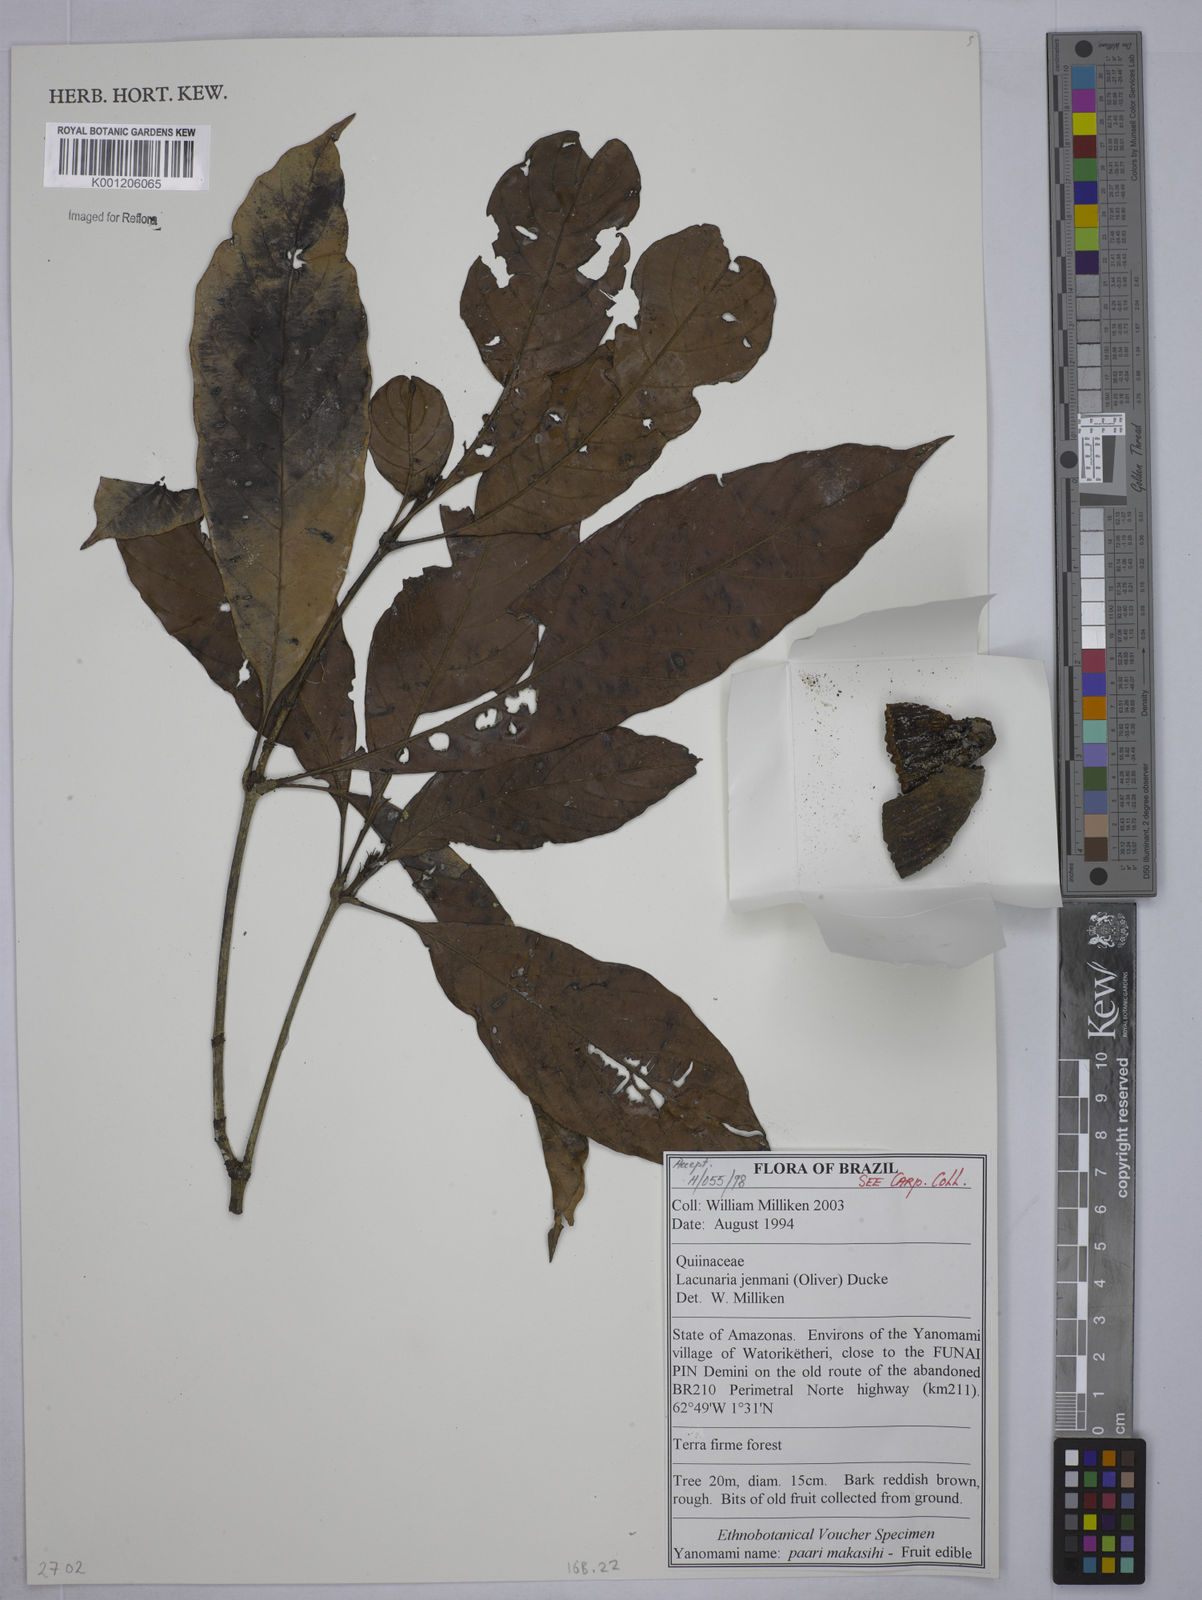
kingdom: Plantae
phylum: Tracheophyta
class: Magnoliopsida
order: Malpighiales
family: Quiinaceae
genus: Lacunaria
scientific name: Lacunaria jenmanii
